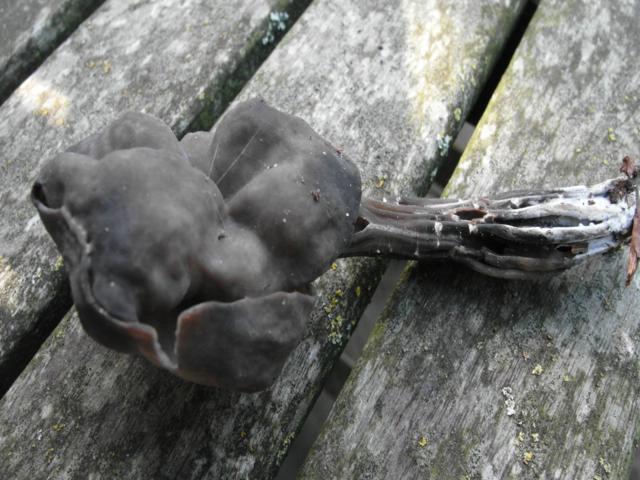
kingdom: Fungi
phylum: Ascomycota
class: Pezizomycetes
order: Pezizales
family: Helvellaceae
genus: Helvella
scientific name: Helvella lacunosa
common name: grubet foldhat
